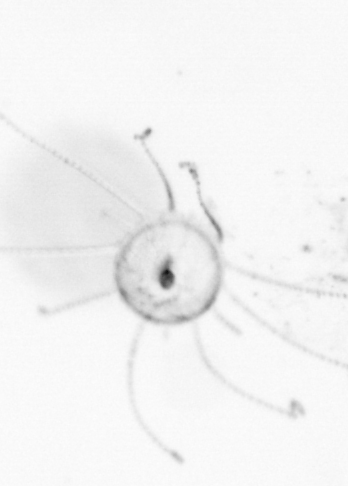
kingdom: Animalia
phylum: Cnidaria
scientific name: Cnidaria
